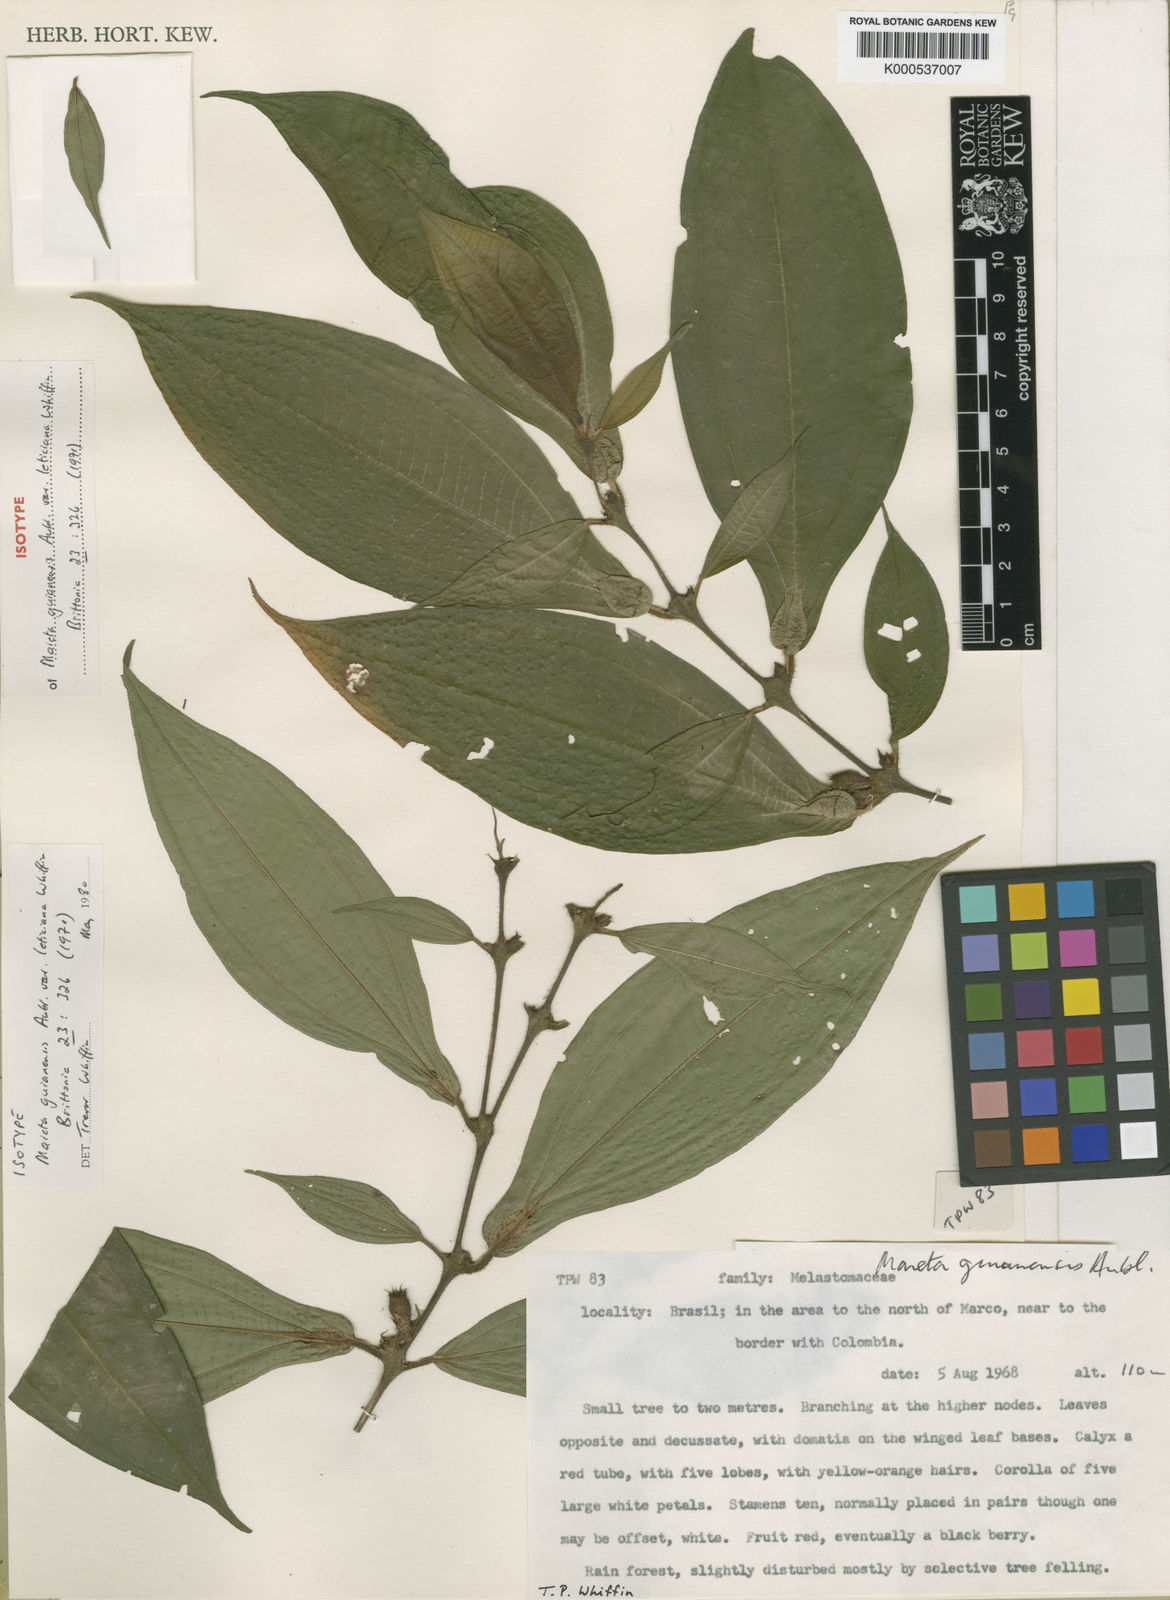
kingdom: Plantae
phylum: Tracheophyta
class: Magnoliopsida
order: Myrtales
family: Melastomataceae
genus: Miconia
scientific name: Miconia mayeta
